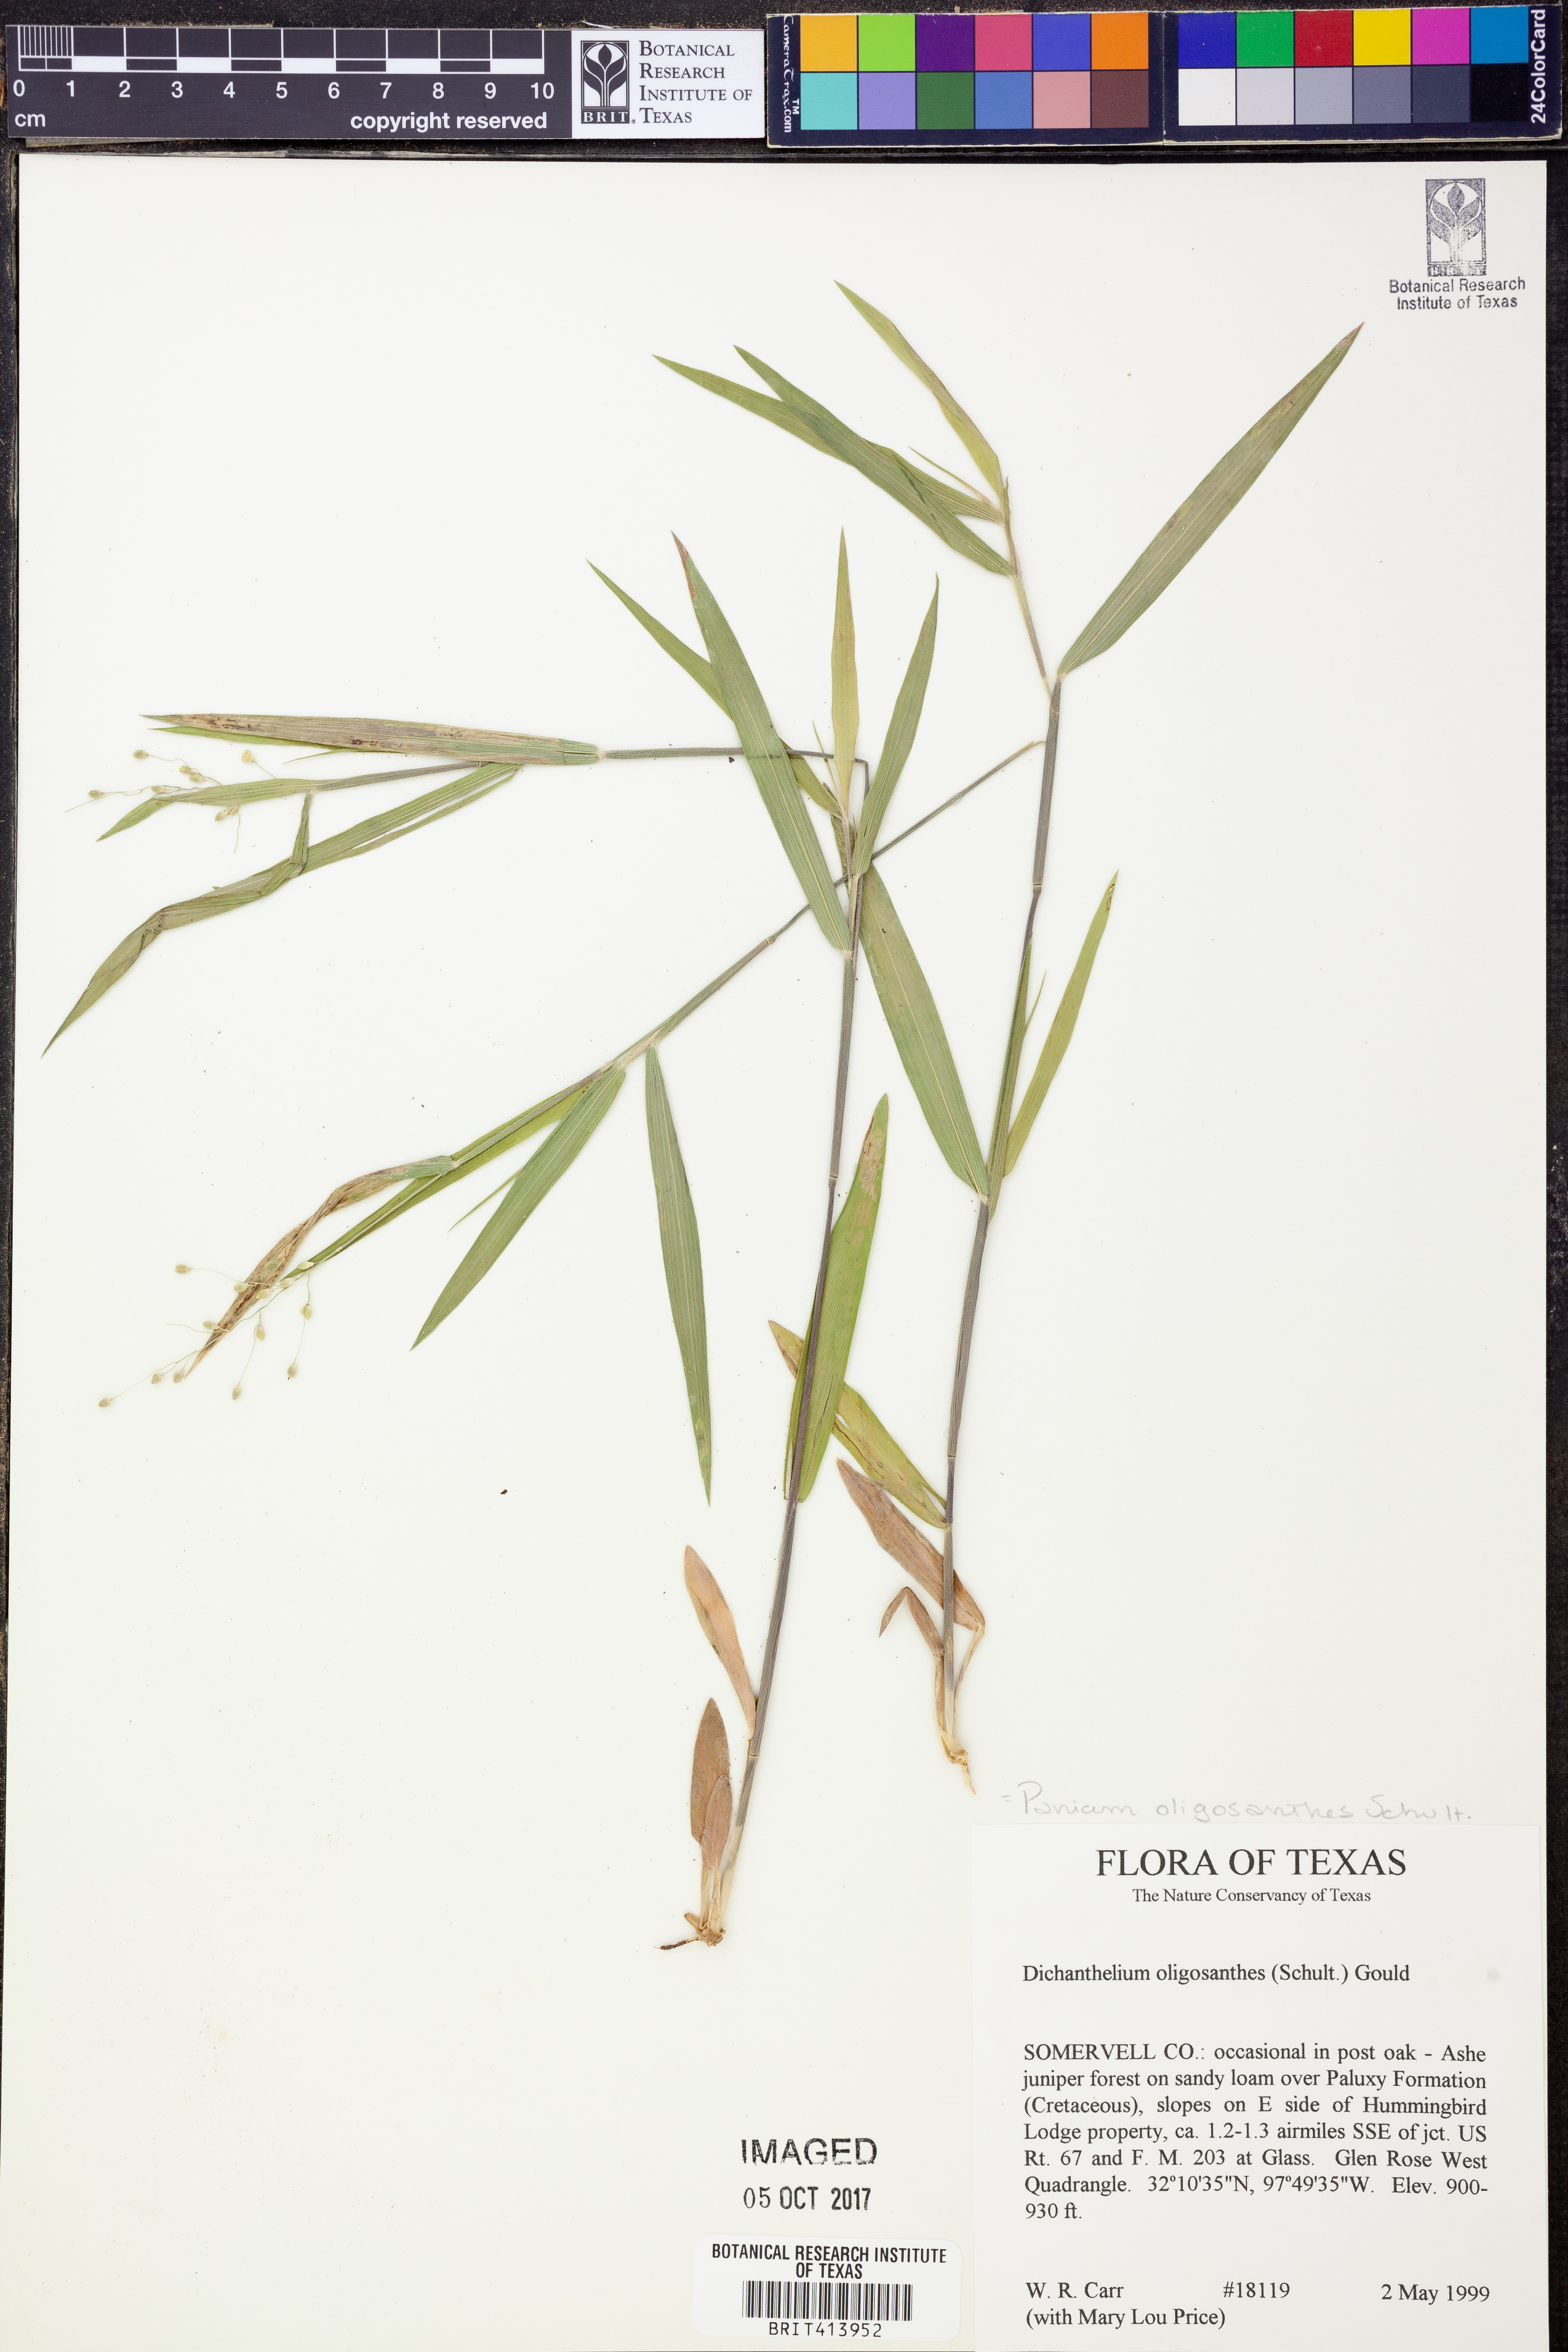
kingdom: Plantae
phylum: Tracheophyta
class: Liliopsida
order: Poales
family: Poaceae
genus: Dichanthelium
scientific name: Dichanthelium oligosanthes
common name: Few-anther obscuregrass
